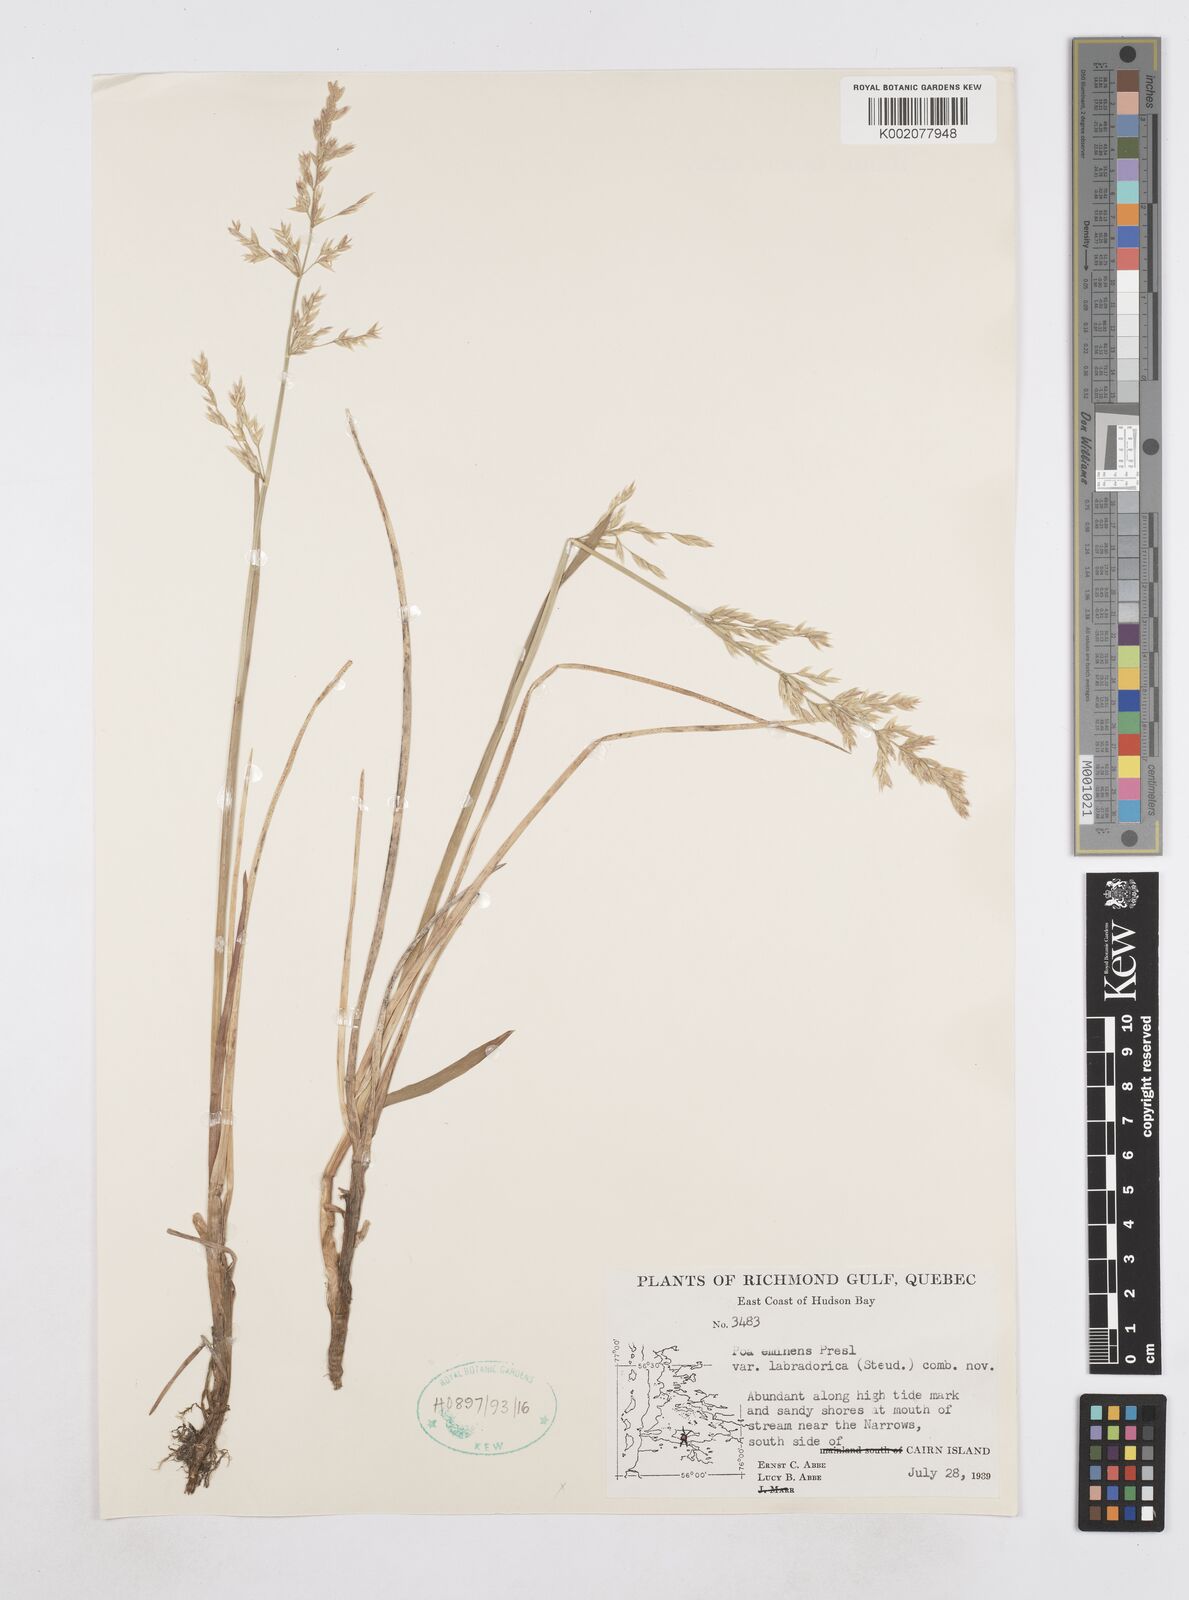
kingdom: Plantae
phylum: Tracheophyta
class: Liliopsida
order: Poales
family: Poaceae
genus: Arctopoa
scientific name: Arctopoa eminens
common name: Eminent bluegrass
